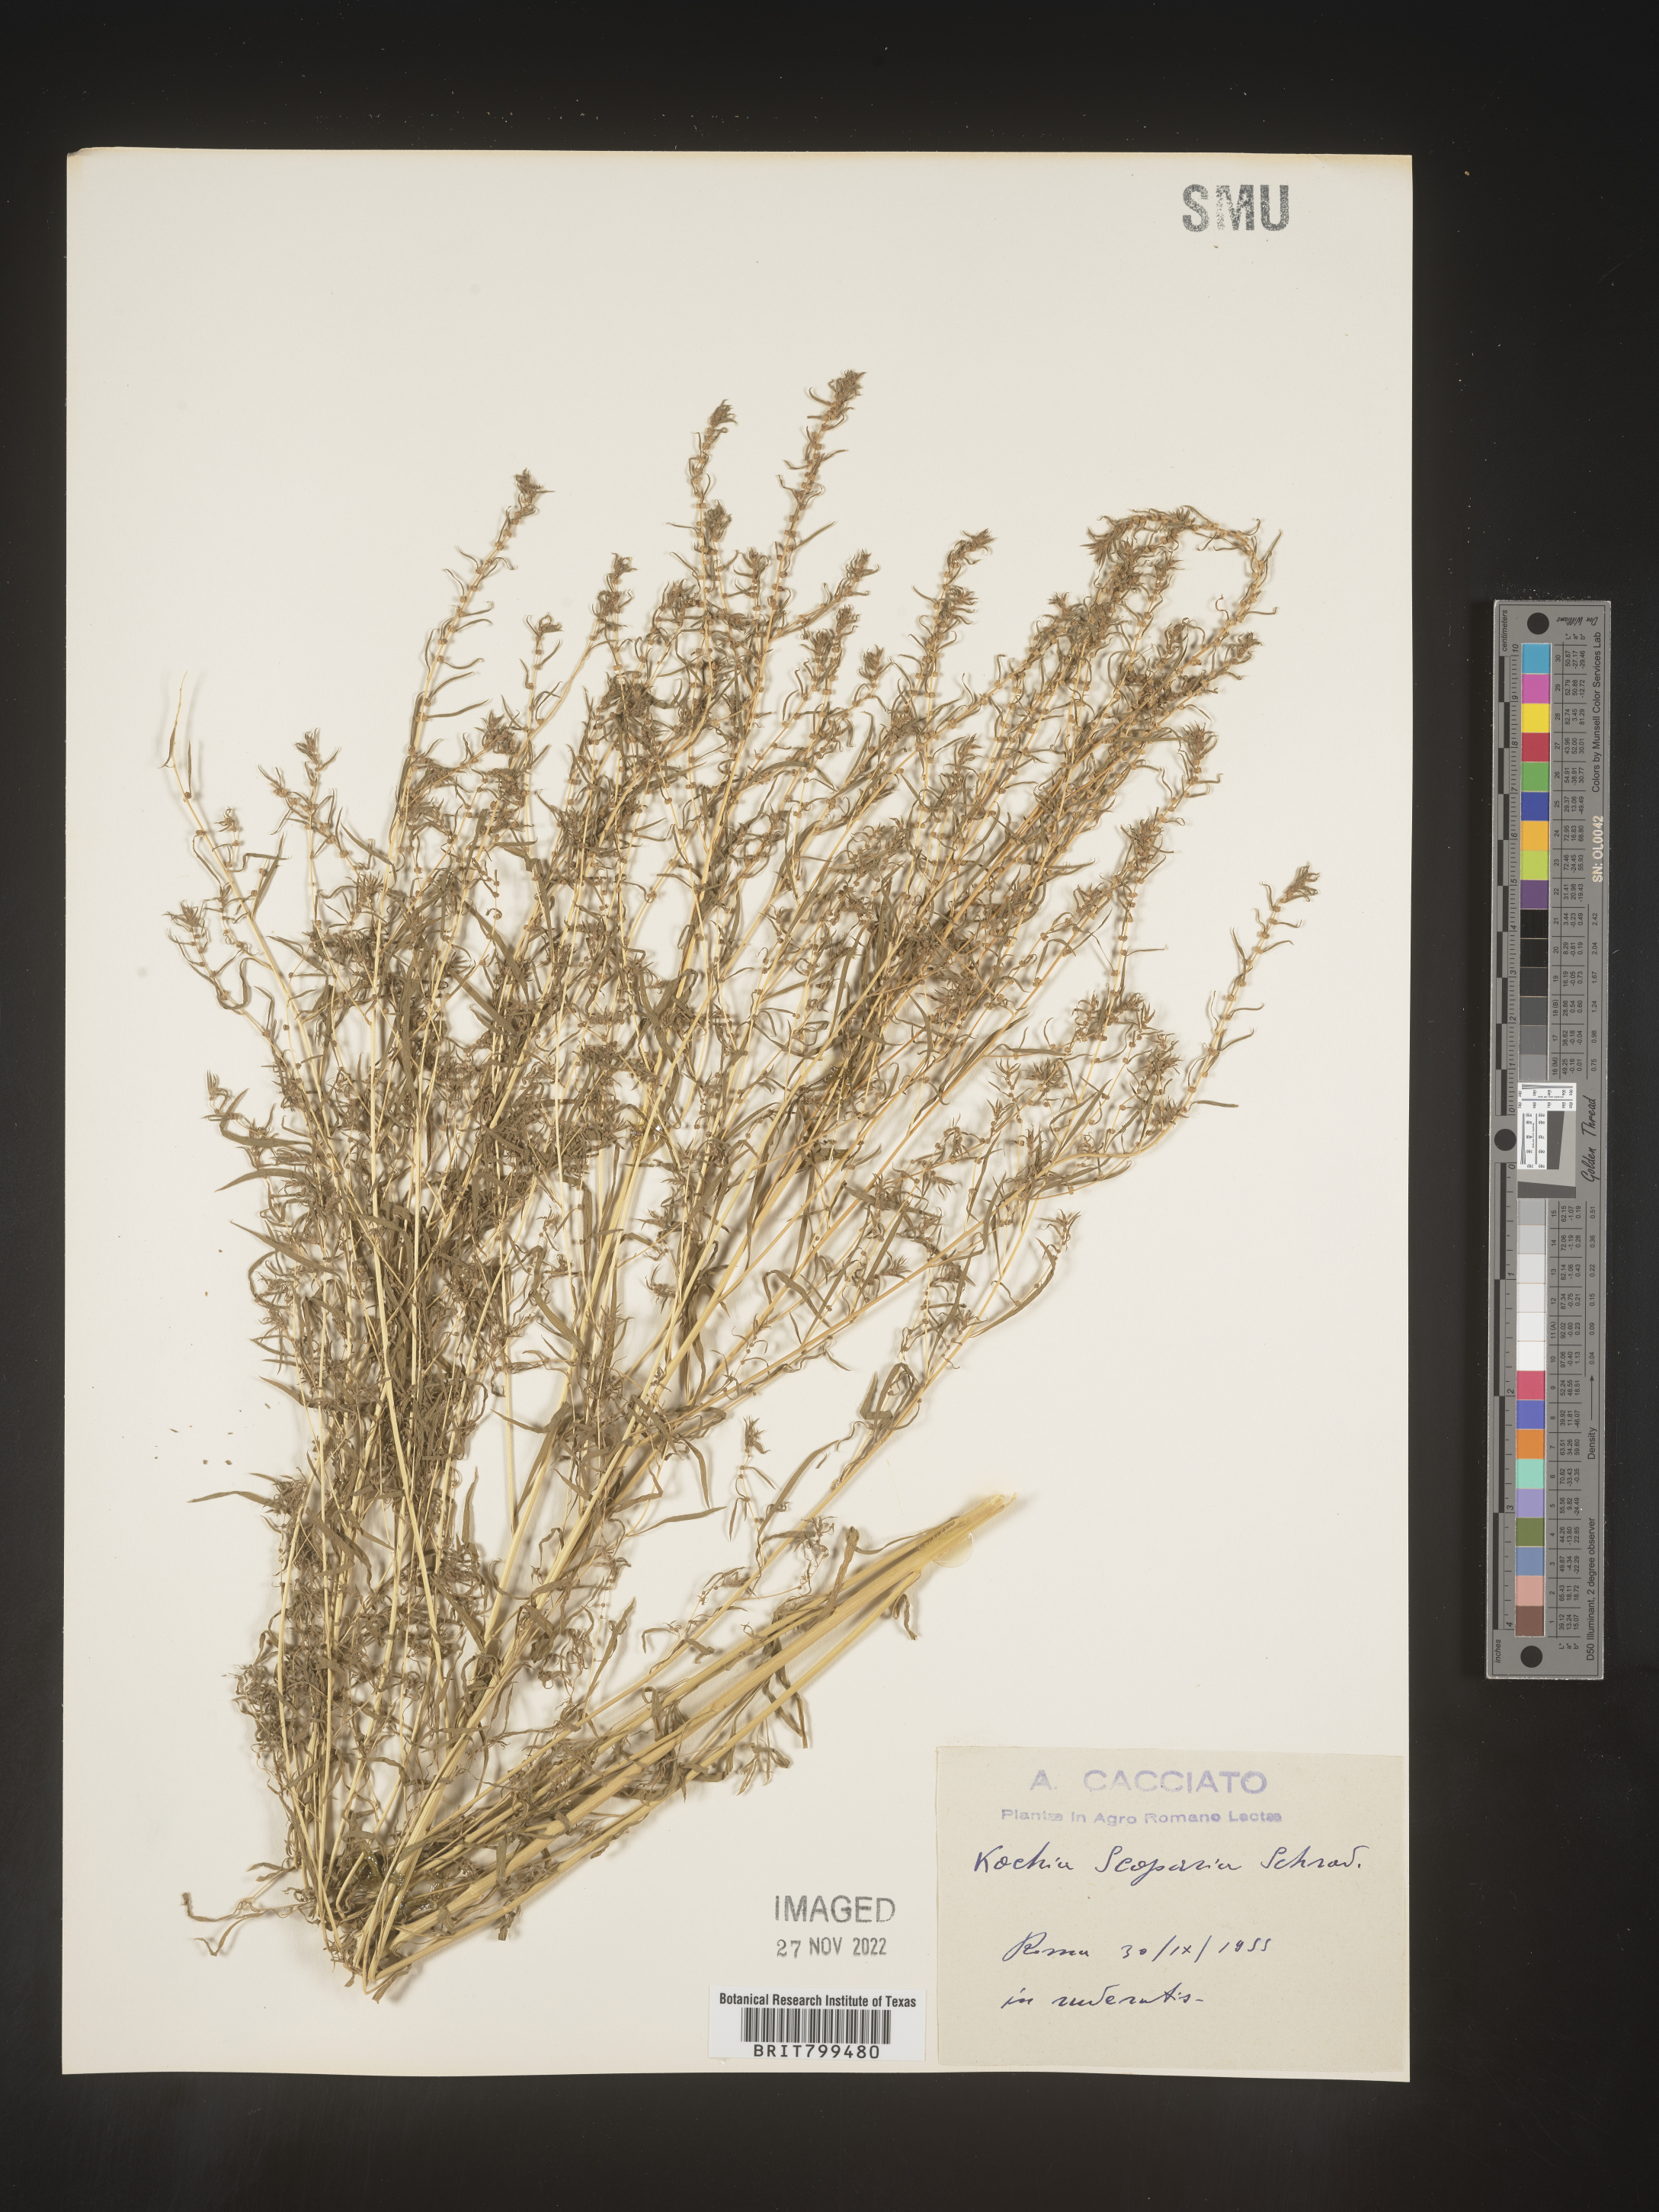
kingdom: Plantae
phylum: Tracheophyta
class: Magnoliopsida
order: Caryophyllales
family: Amaranthaceae
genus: Bassia
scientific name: Bassia
